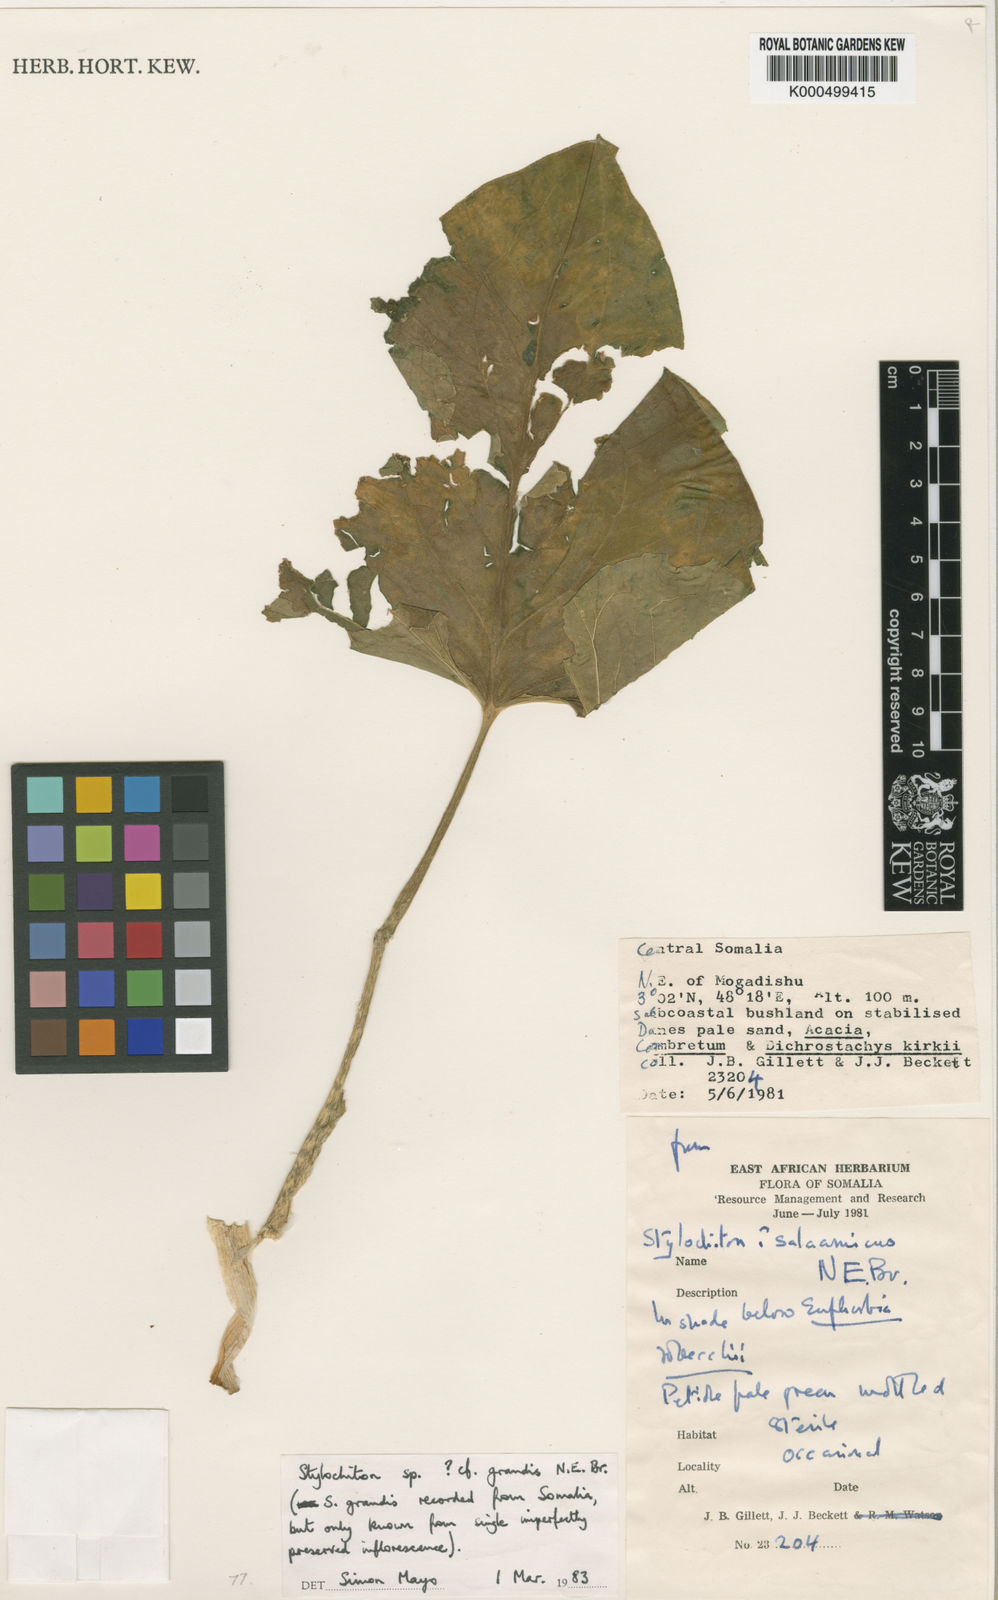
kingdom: Plantae
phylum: Tracheophyta
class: Liliopsida
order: Alismatales
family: Araceae
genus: Stylochaeton
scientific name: Stylochaeton
